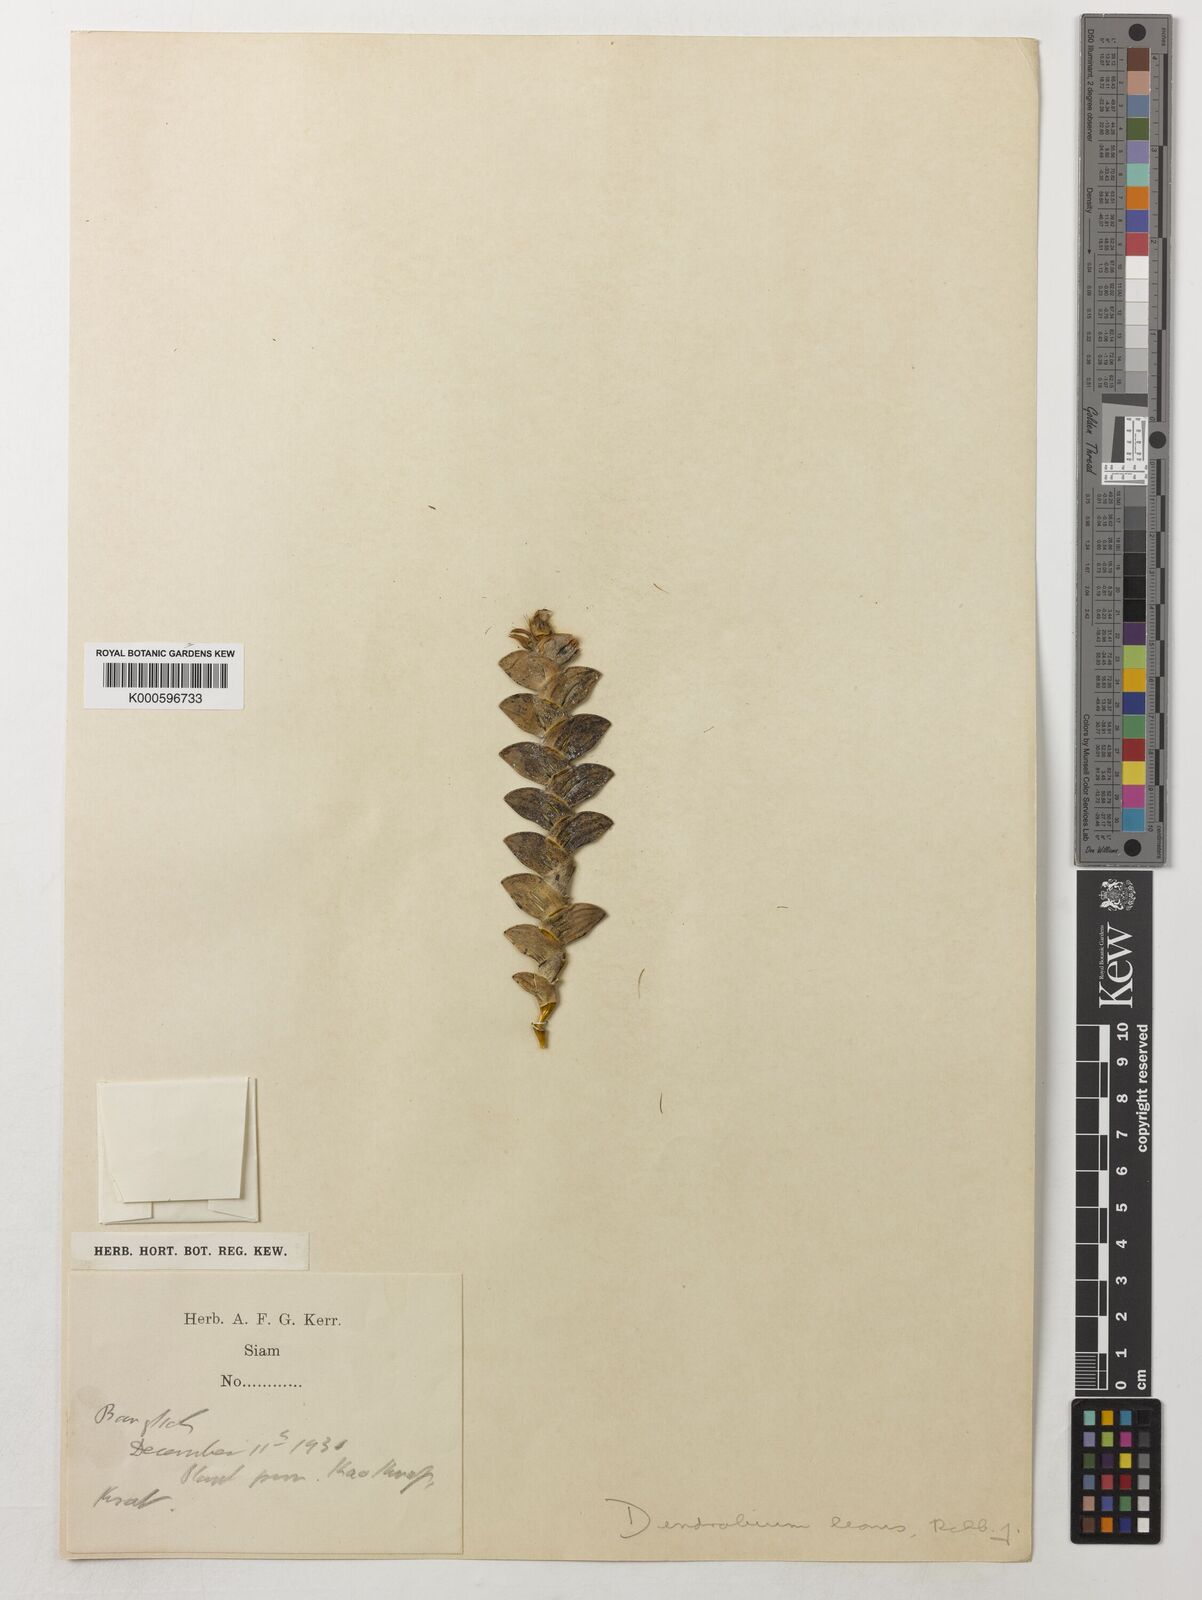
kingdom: Plantae
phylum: Tracheophyta
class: Liliopsida
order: Asparagales
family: Orchidaceae
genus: Dendrobium
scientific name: Dendrobium leonis
